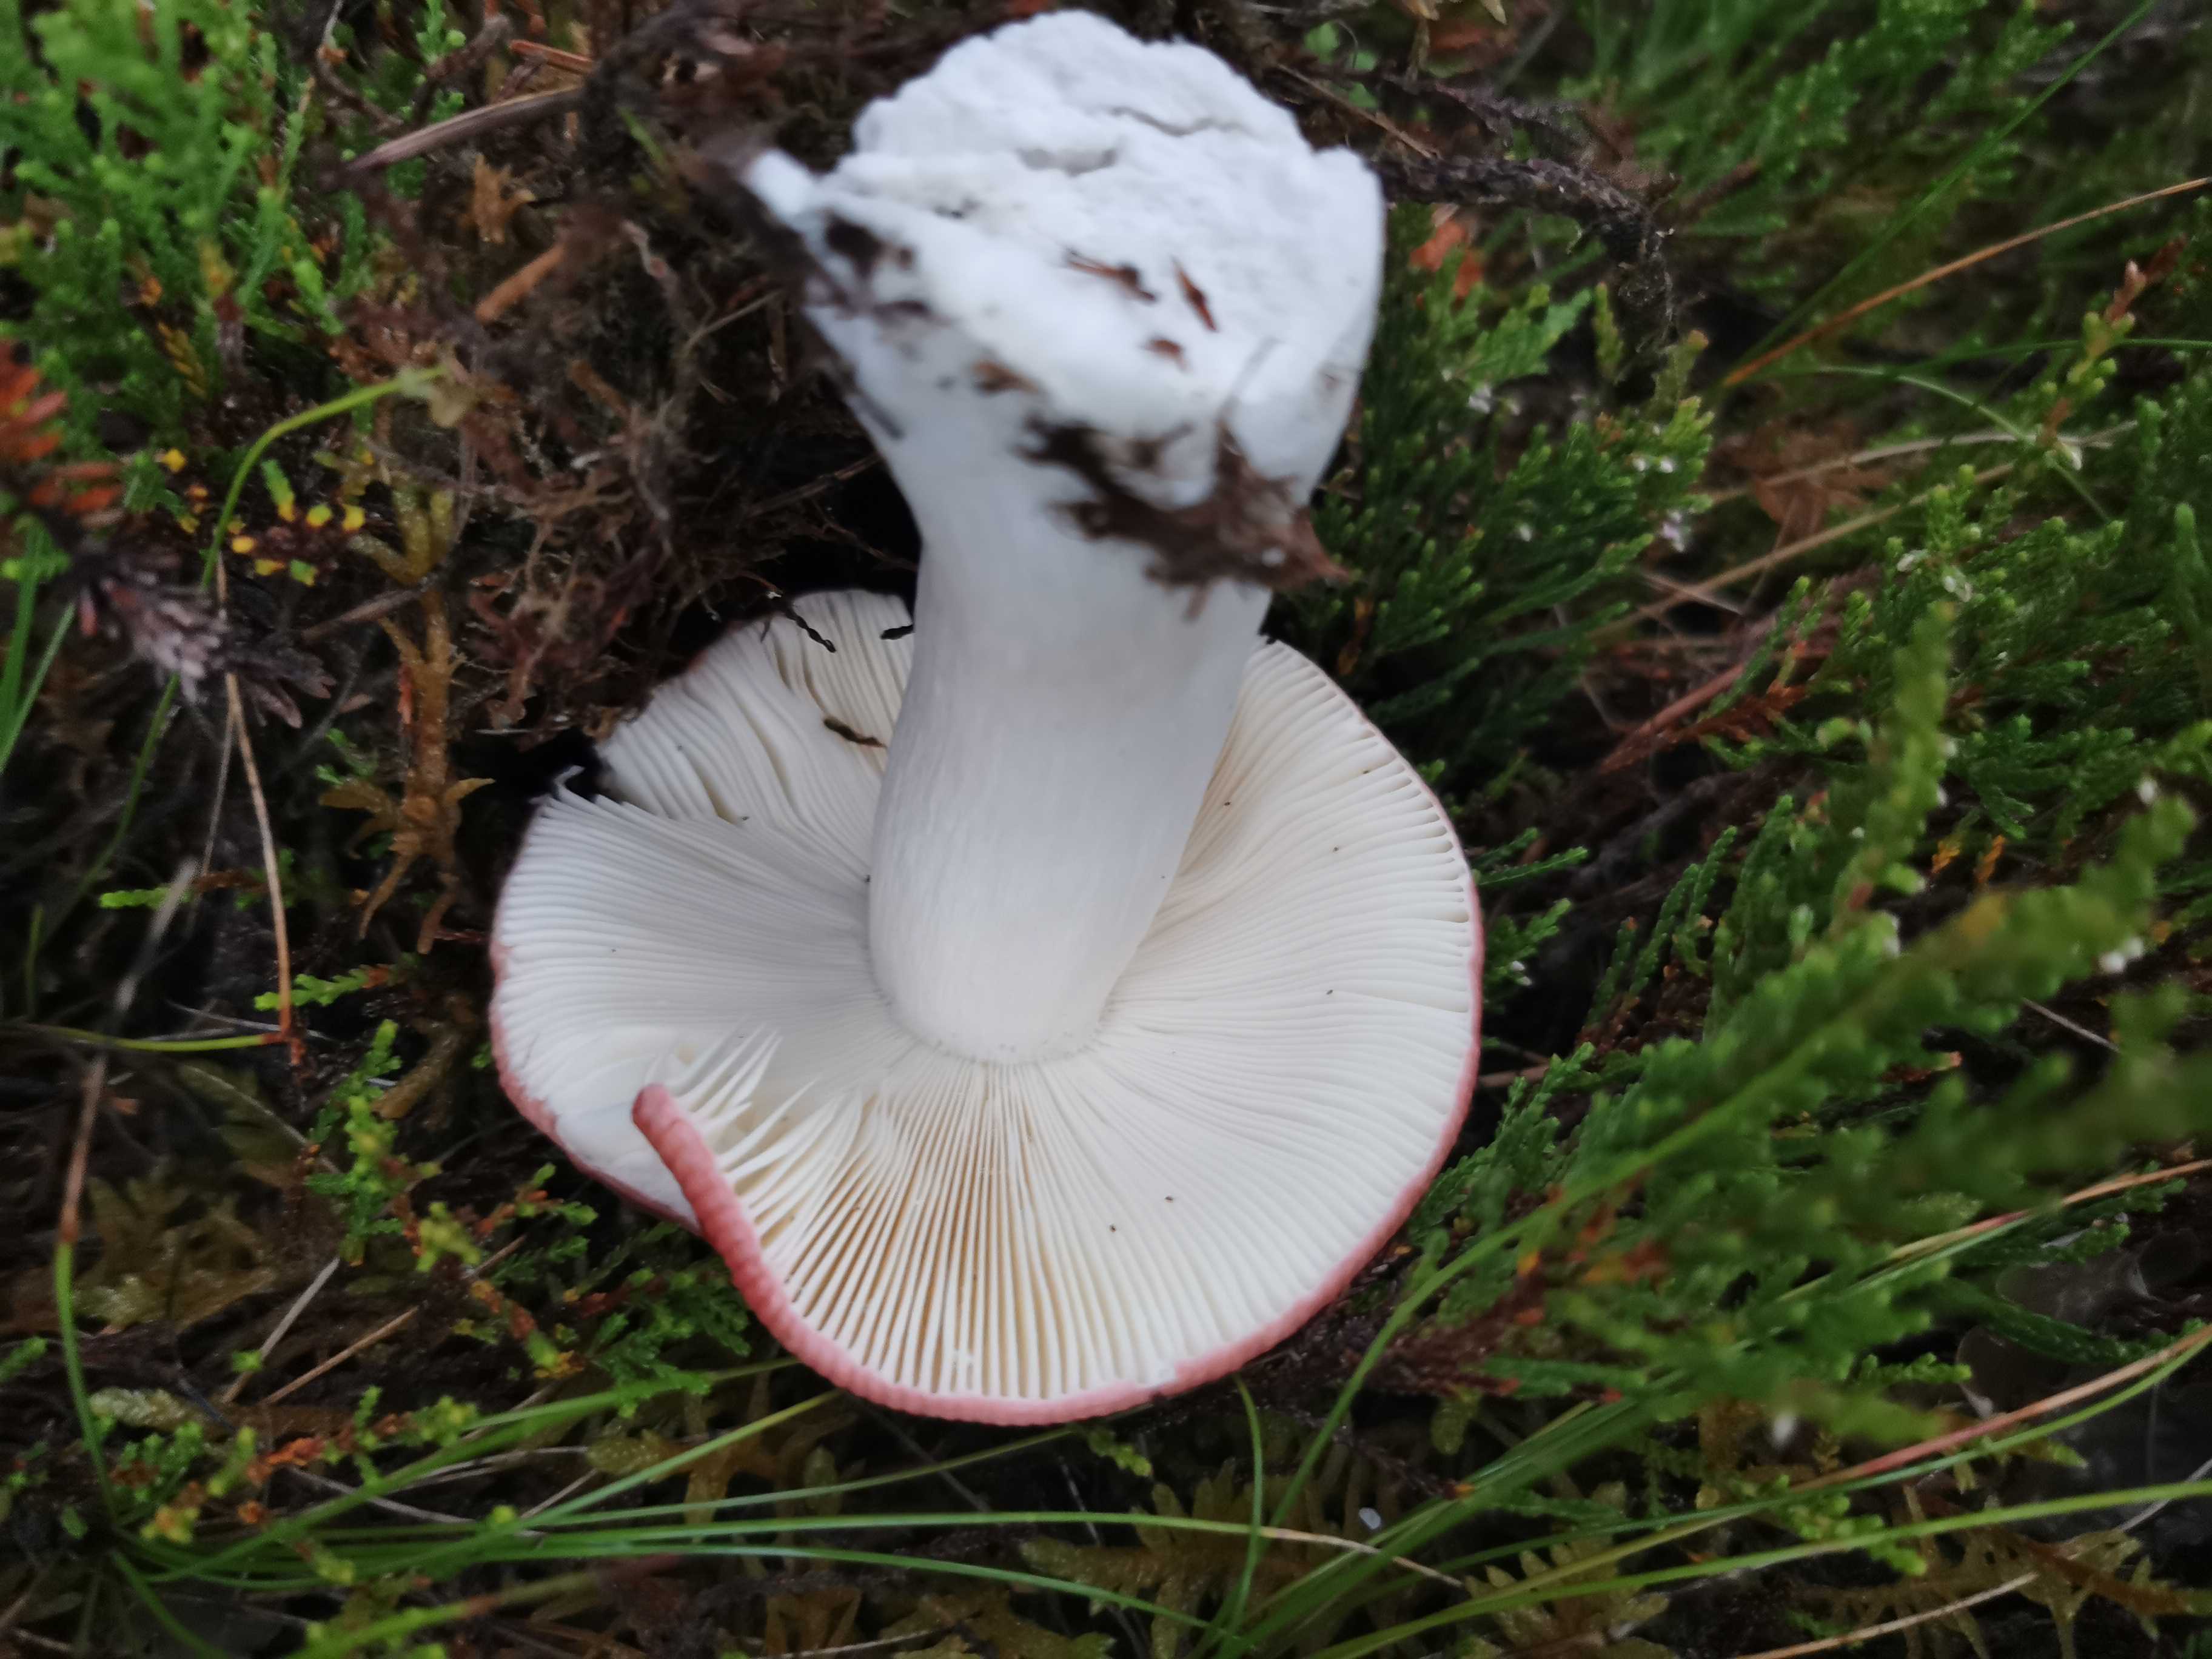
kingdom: Fungi
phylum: Basidiomycota
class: Agaricomycetes
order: Russulales
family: Russulaceae
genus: Russula
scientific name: Russula paludosa
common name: prægtig skørhat
